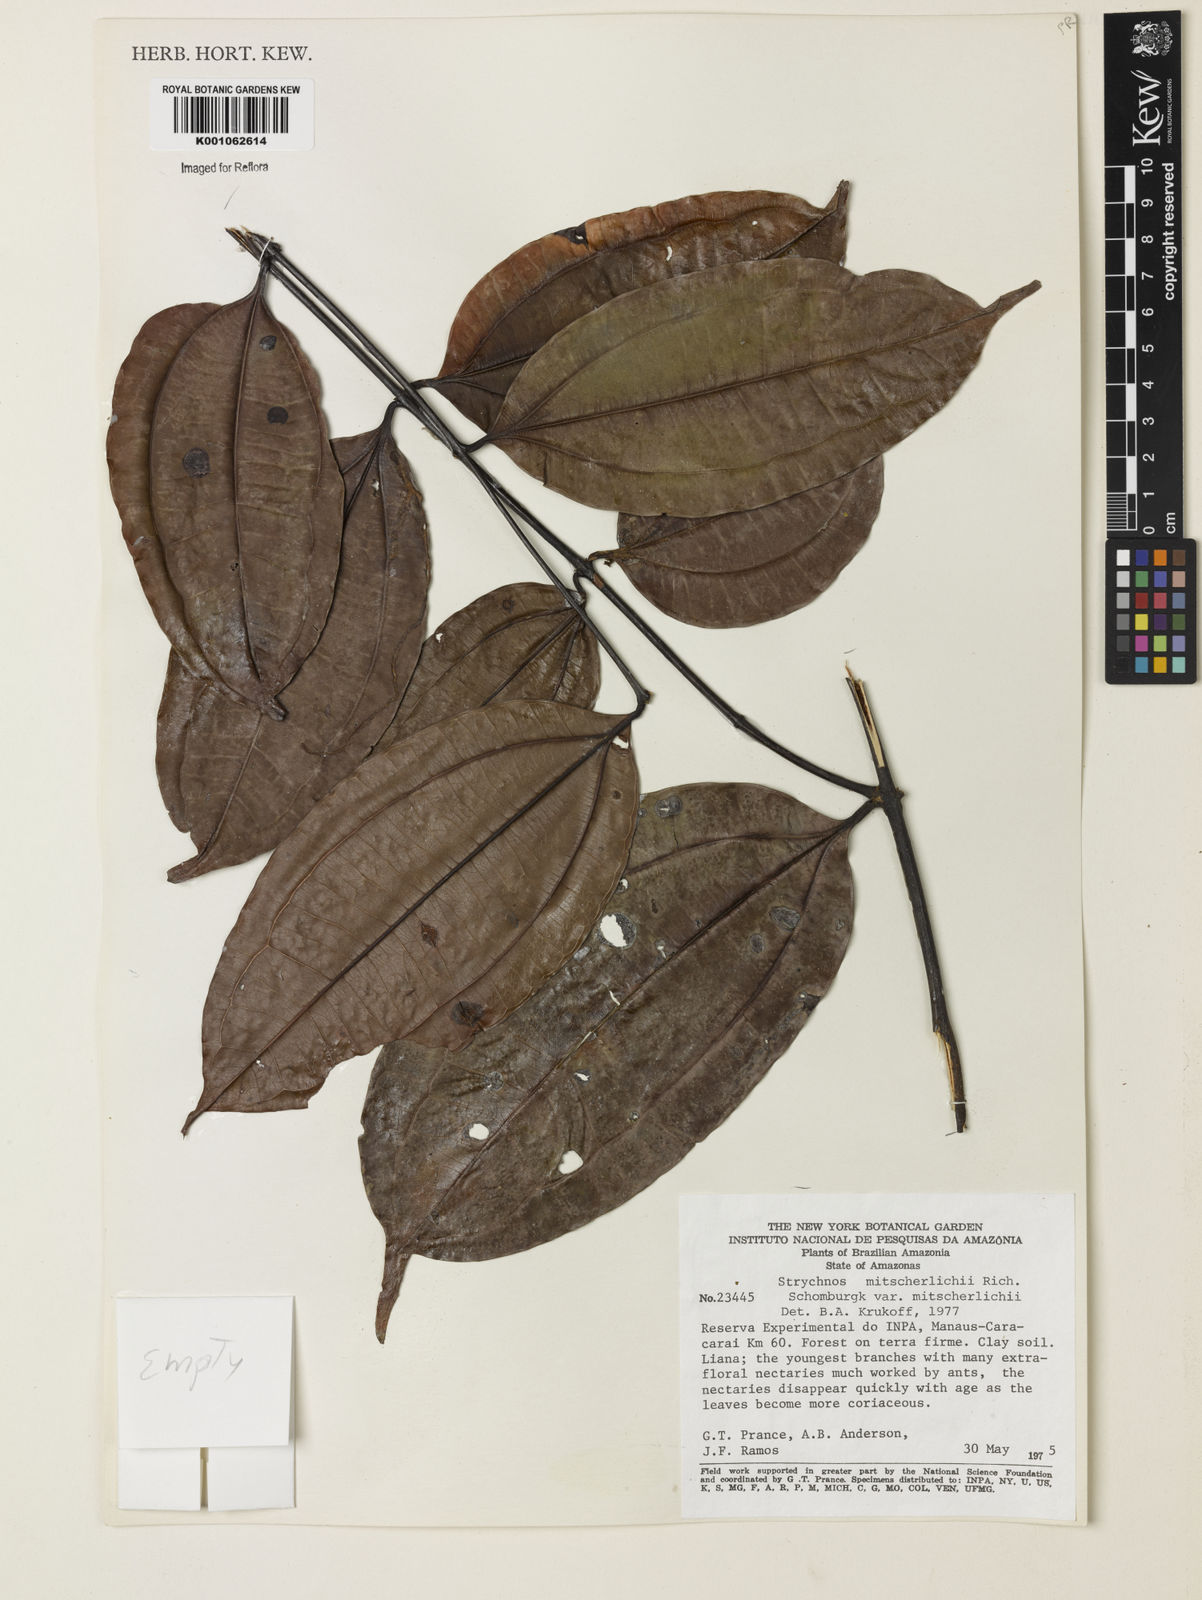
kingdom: Plantae
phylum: Tracheophyta
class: Magnoliopsida
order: Gentianales
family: Loganiaceae
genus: Strychnos
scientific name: Strychnos mitscherlichii
